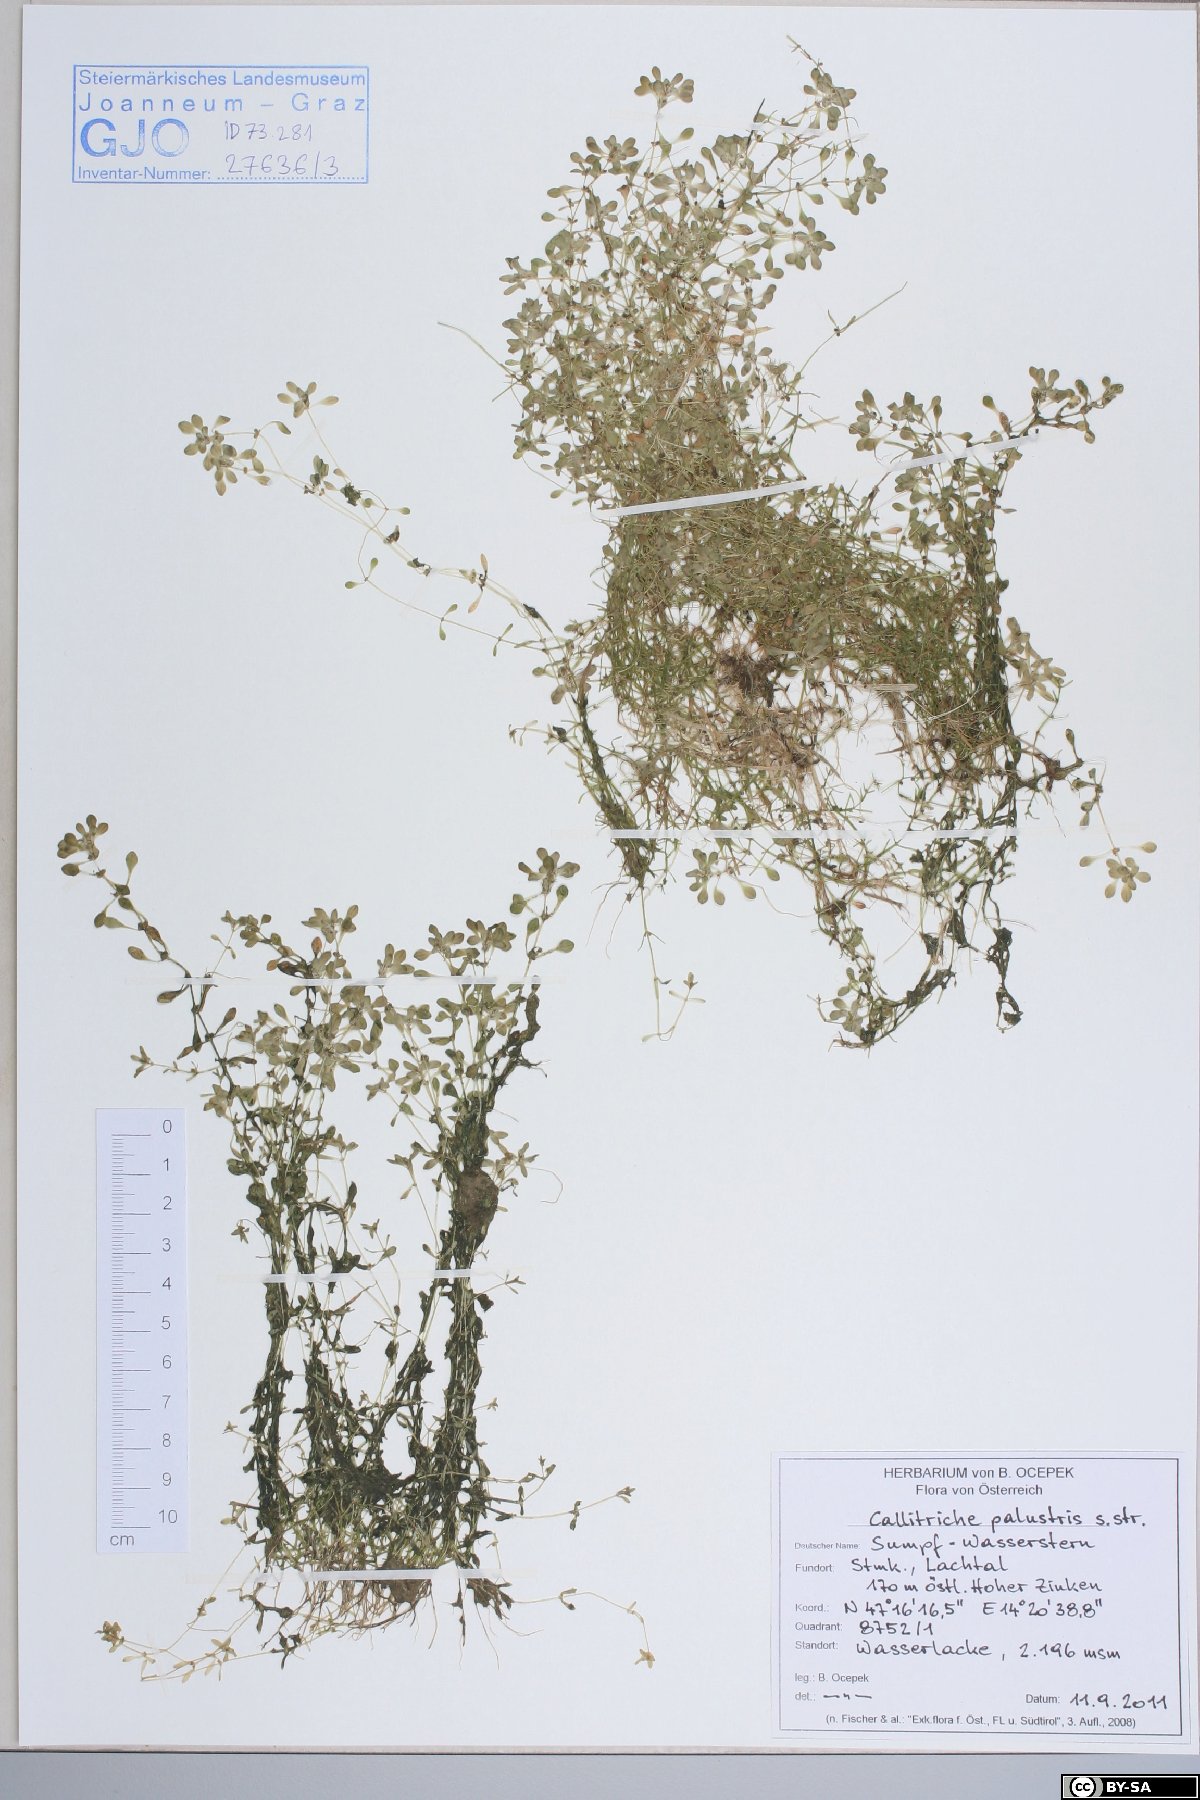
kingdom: Plantae
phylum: Tracheophyta
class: Magnoliopsida
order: Lamiales
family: Plantaginaceae
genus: Callitriche
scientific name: Callitriche palustris
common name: Spring water-starwort
